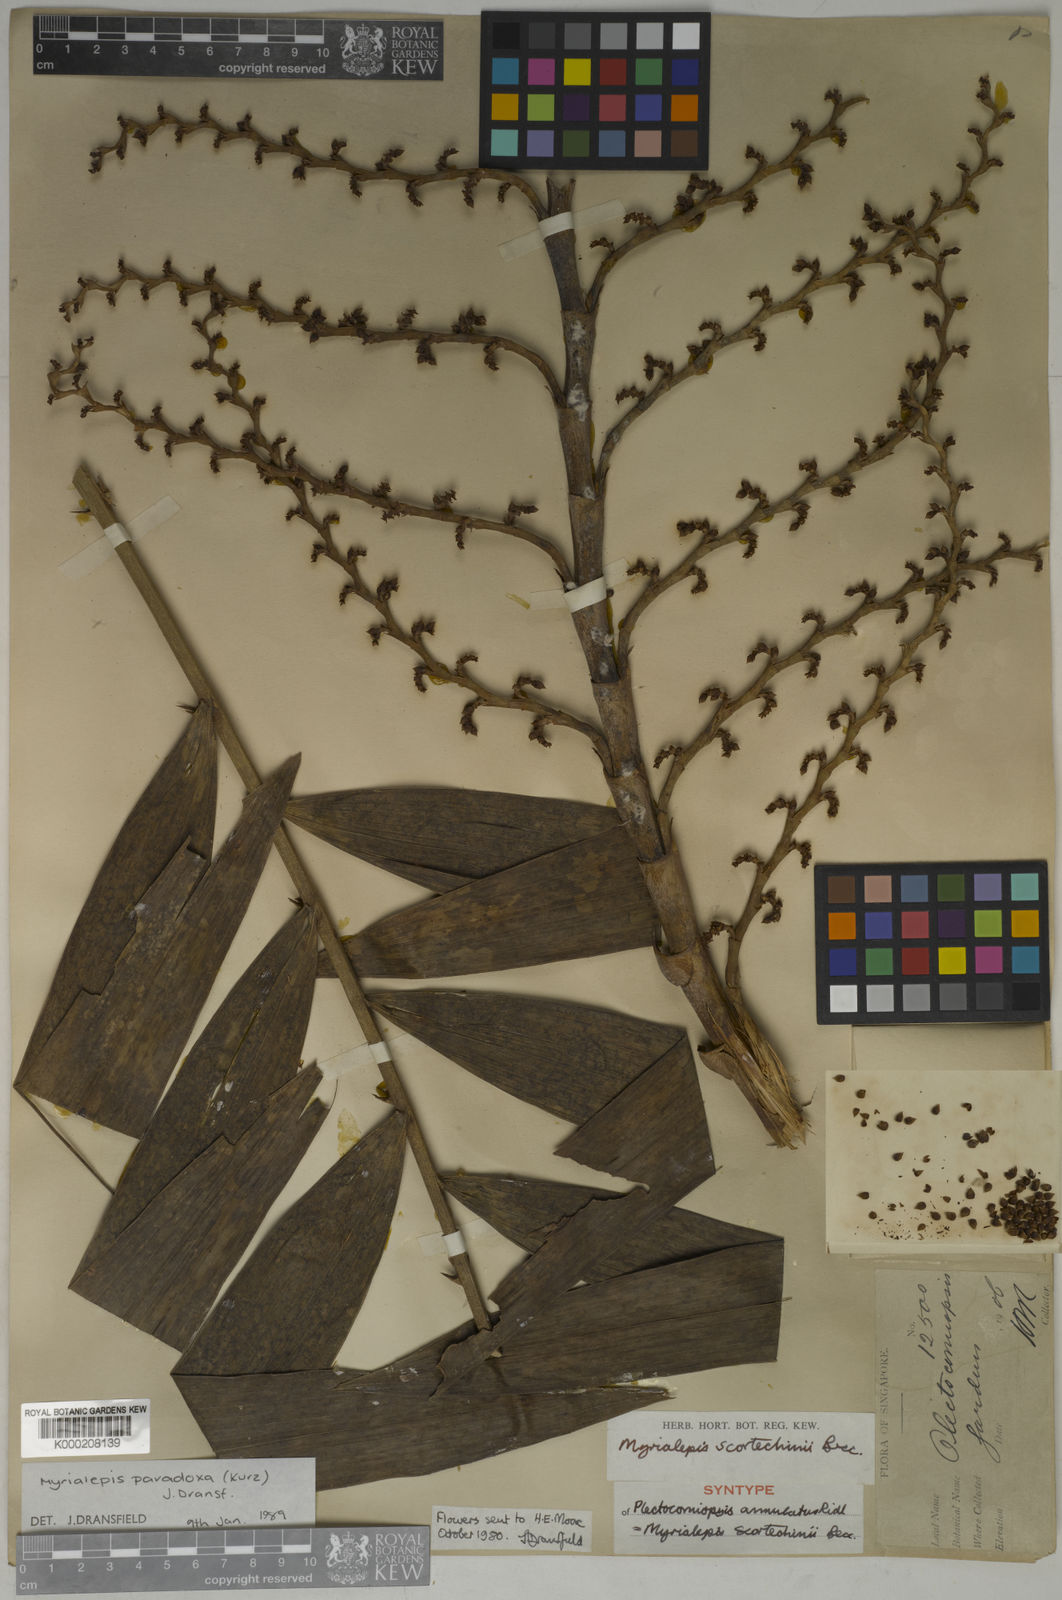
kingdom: Plantae
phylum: Tracheophyta
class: Liliopsida
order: Arecales
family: Arecaceae
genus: Myrialepis
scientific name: Myrialepis paradoxa
